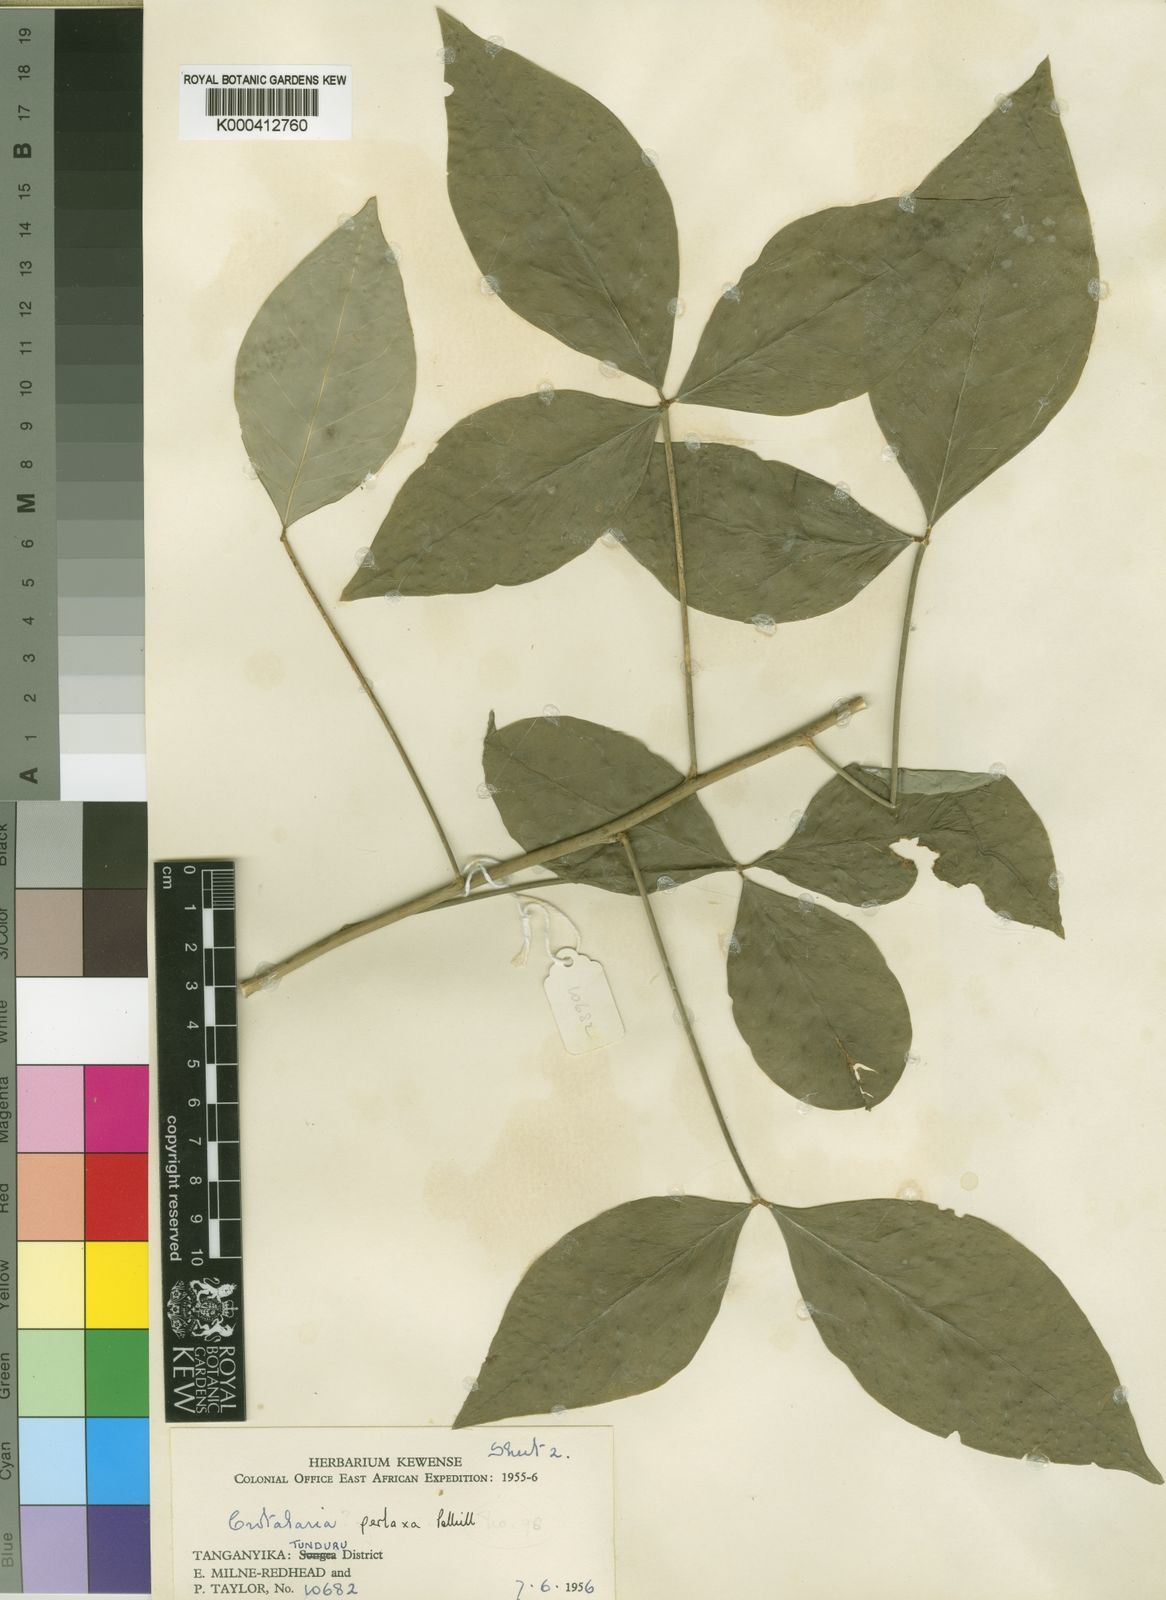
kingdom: Plantae
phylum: Tracheophyta
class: Magnoliopsida
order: Fabales
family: Fabaceae
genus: Crotalaria
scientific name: Crotalaria perlaxa
